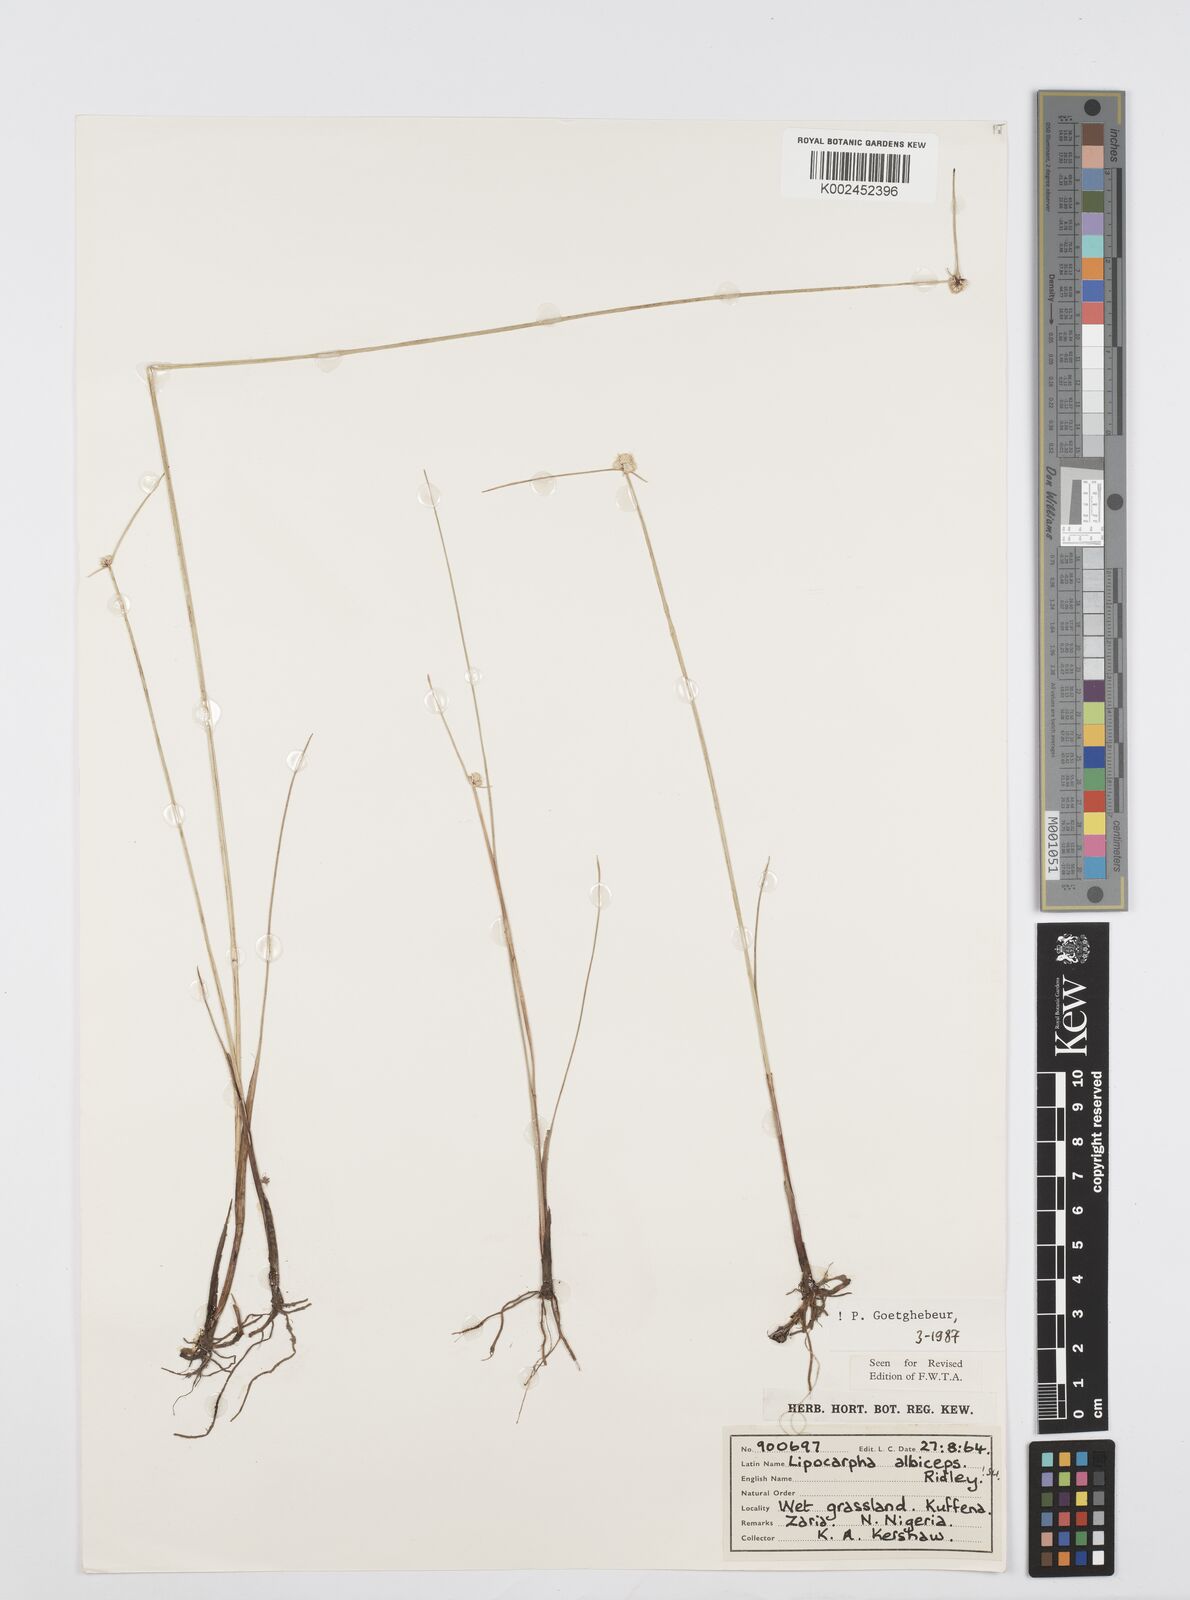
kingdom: Plantae
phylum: Tracheophyta
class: Liliopsida
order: Poales
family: Cyperaceae
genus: Cyperus
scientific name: Cyperus albiceps
